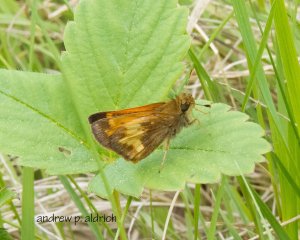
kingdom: Animalia
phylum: Arthropoda
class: Insecta
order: Lepidoptera
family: Hesperiidae
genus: Lon
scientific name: Lon hobomok
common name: Hobomok Skipper
